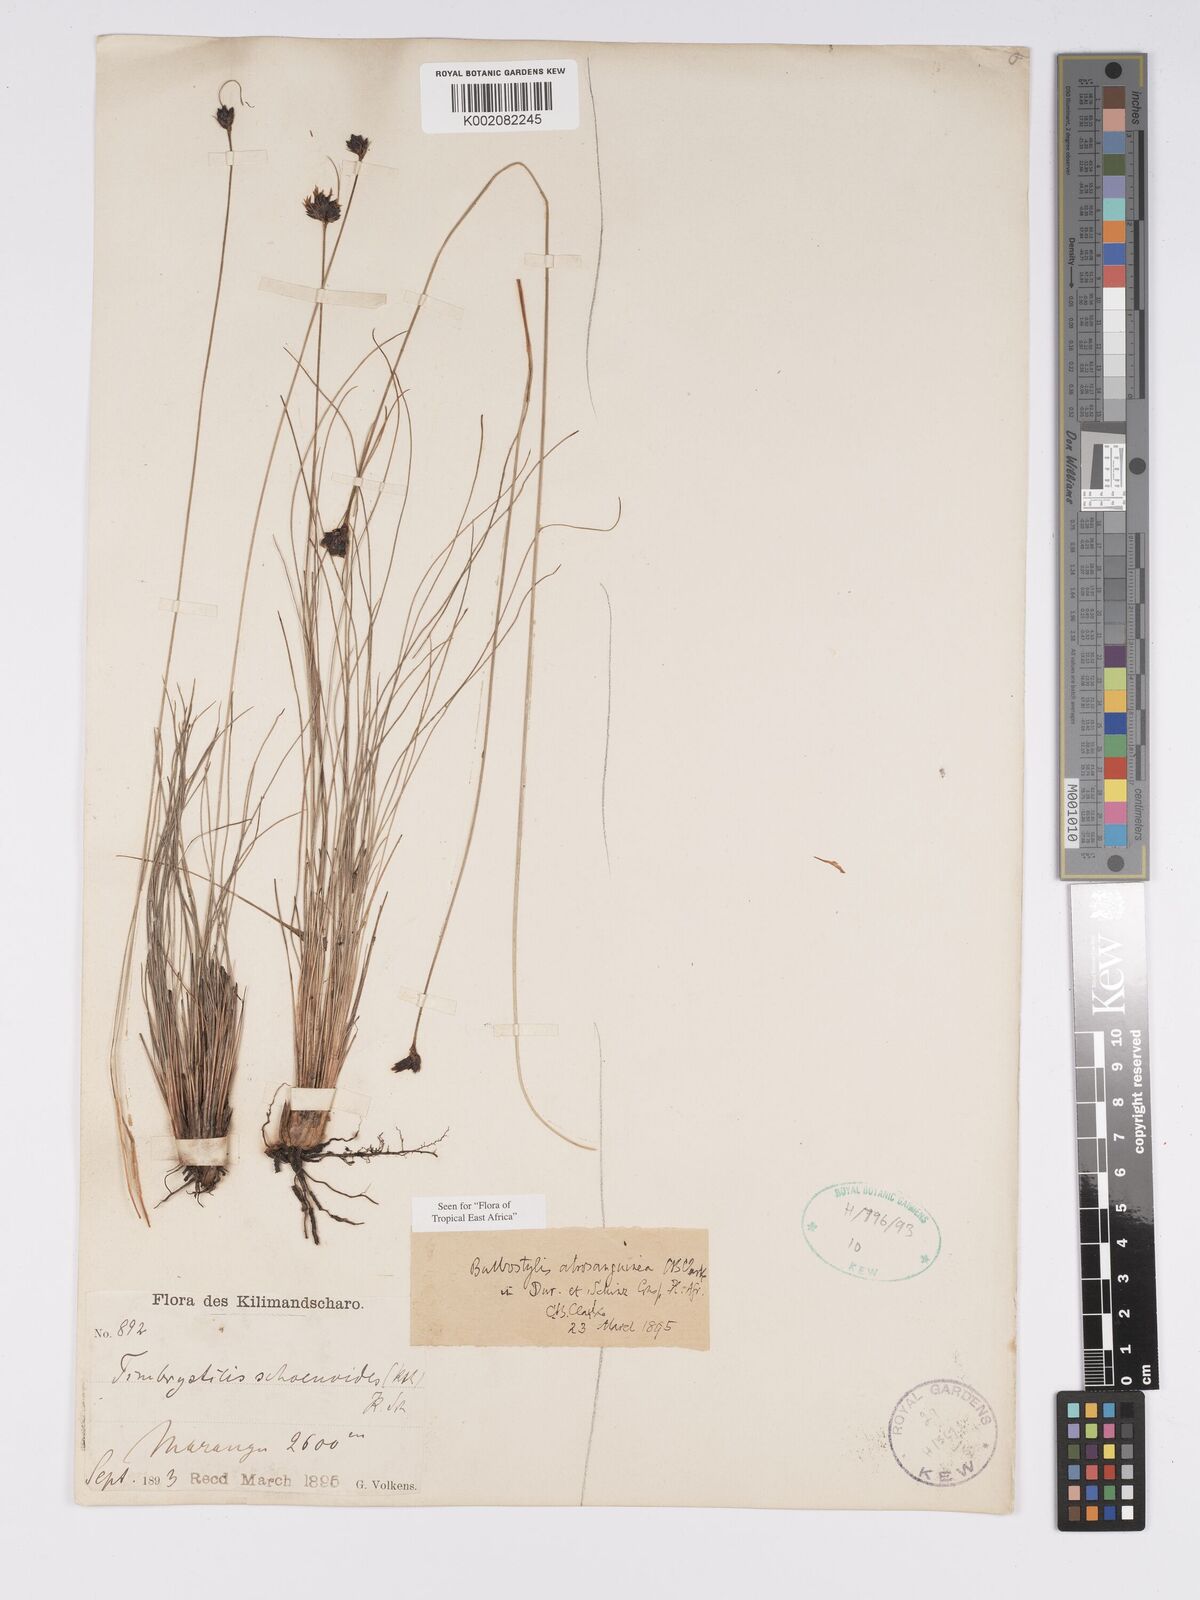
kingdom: Plantae
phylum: Tracheophyta
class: Liliopsida
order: Poales
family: Cyperaceae
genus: Bulbostylis
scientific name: Bulbostylis atrosanguinea
